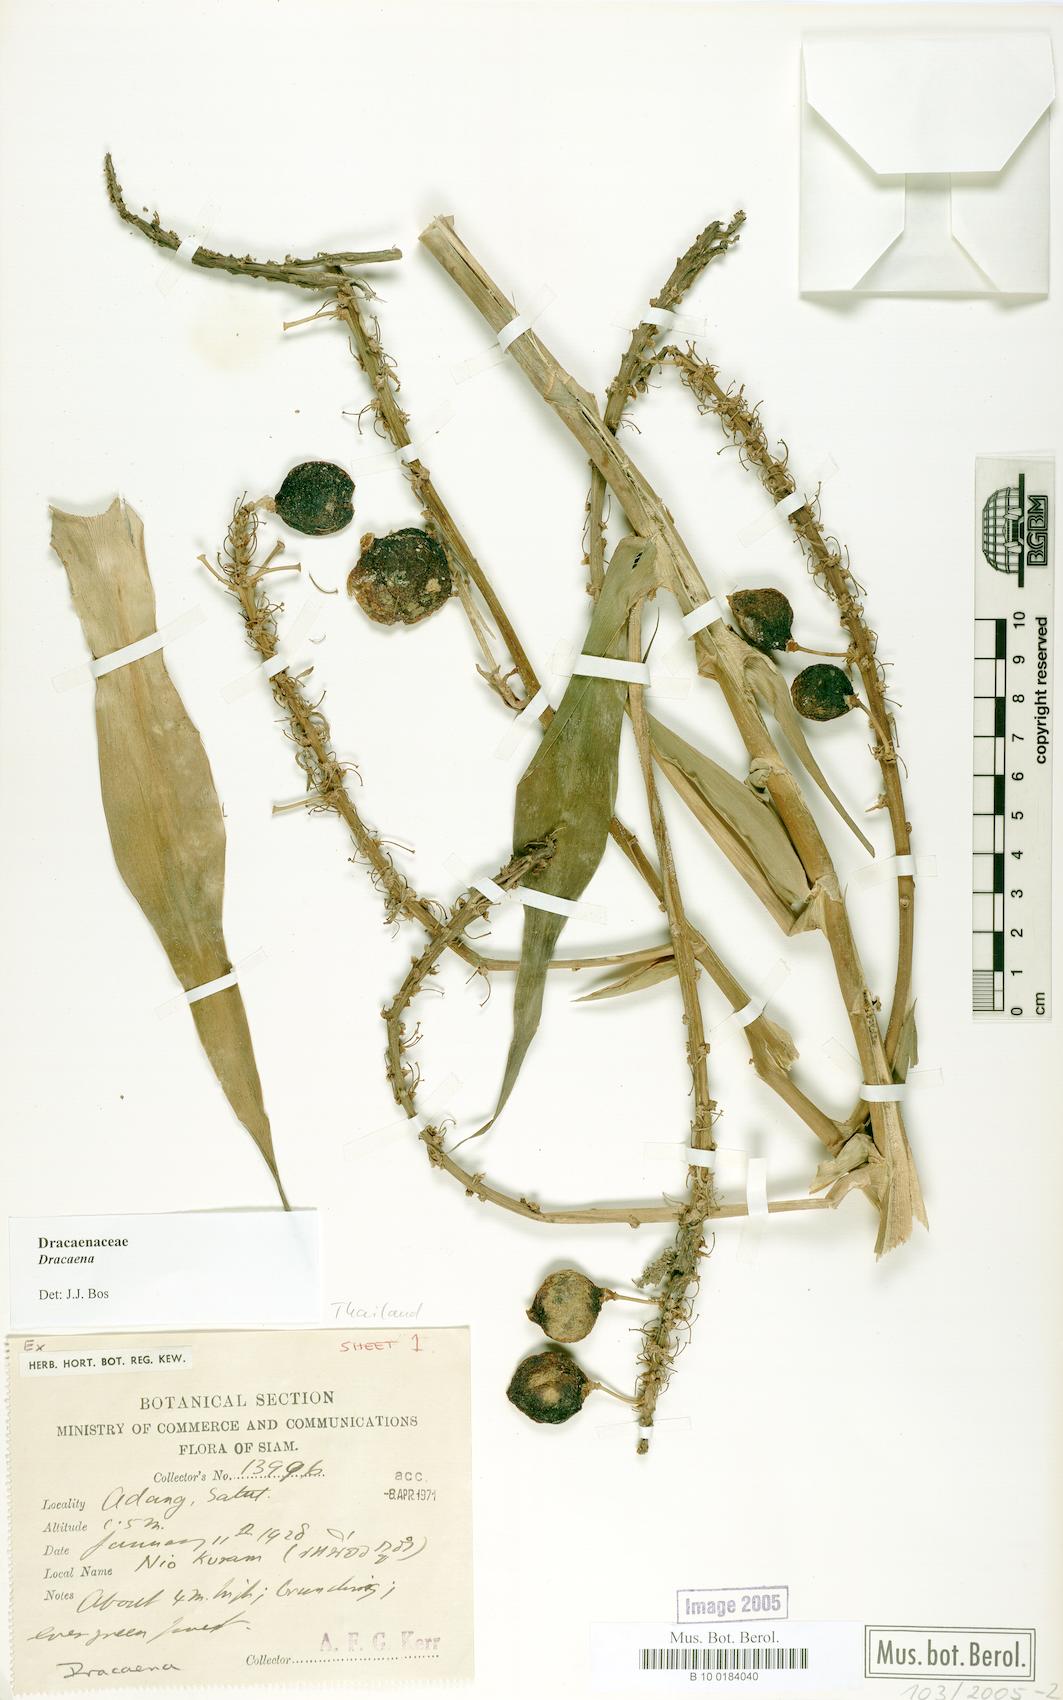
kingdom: Plantae
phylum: Tracheophyta
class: Liliopsida
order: Asparagales
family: Asparagaceae
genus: Dracaena
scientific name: Dracaena
